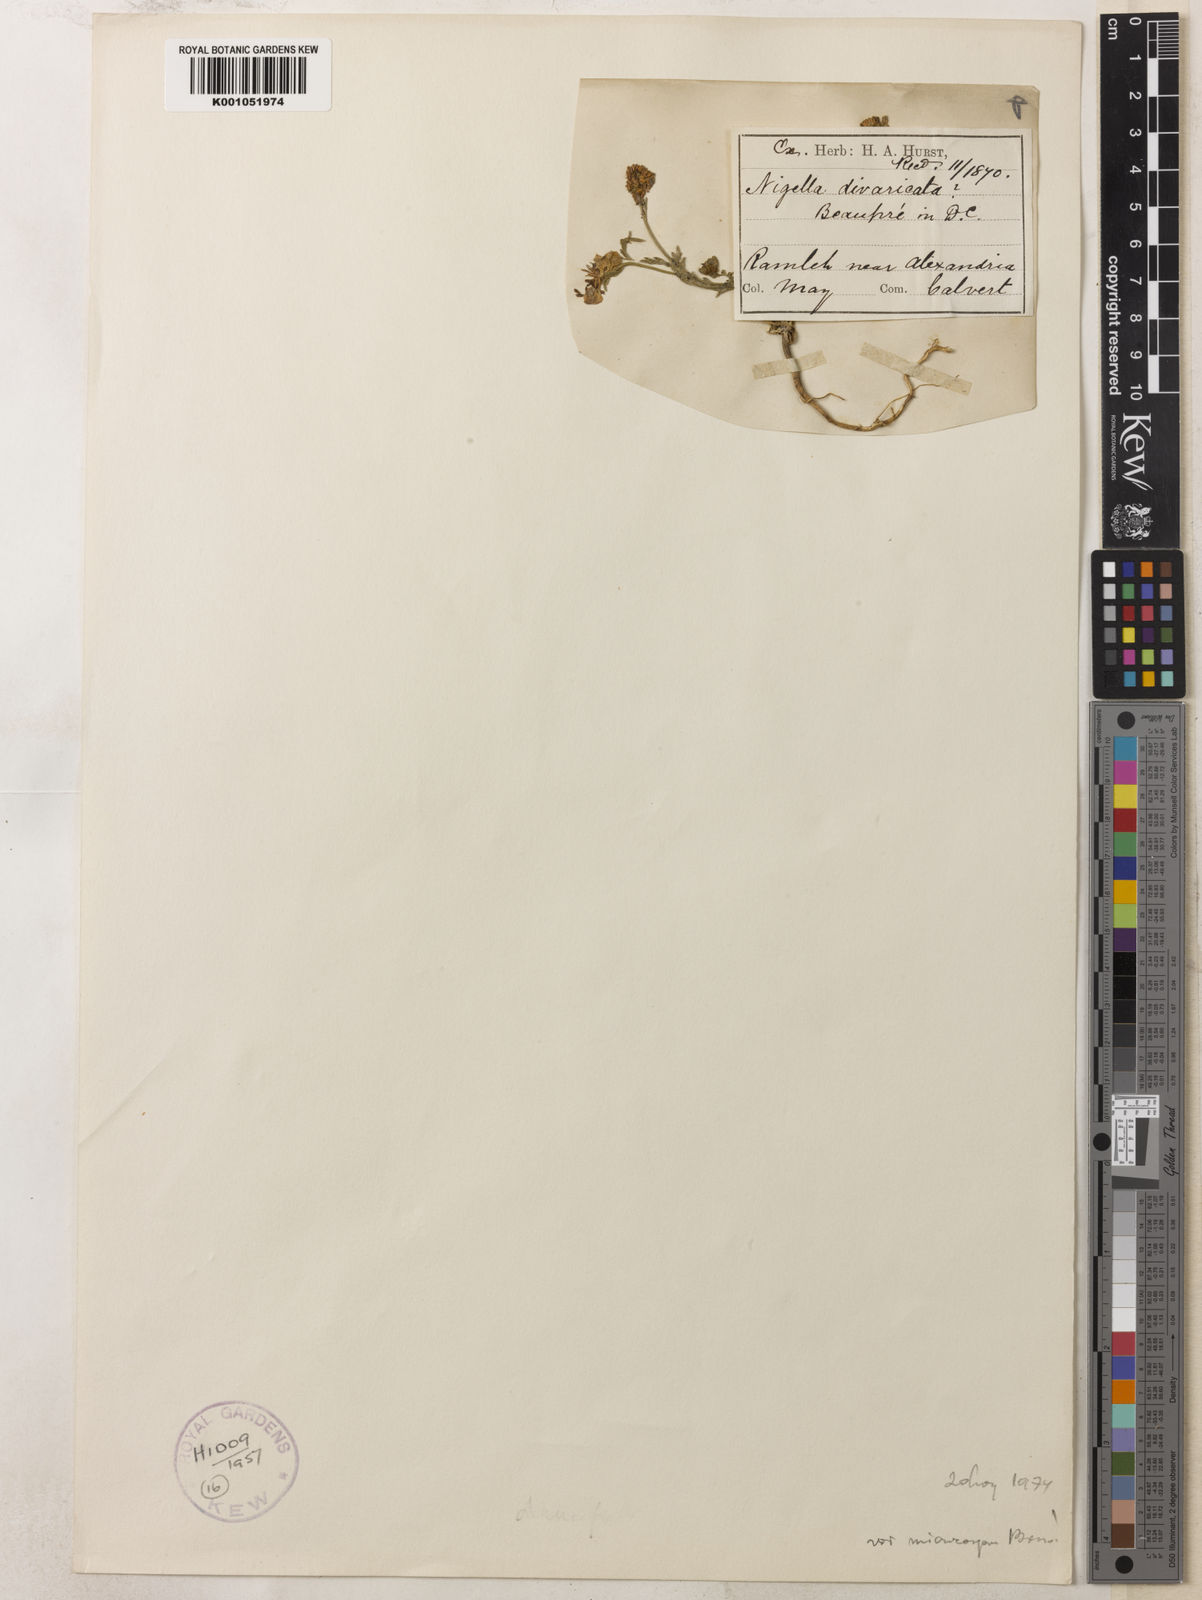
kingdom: Plantae
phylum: Tracheophyta
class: Magnoliopsida
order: Ranunculales
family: Ranunculaceae
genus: Nigella
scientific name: Nigella arvensis
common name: Wild fennel-flower
